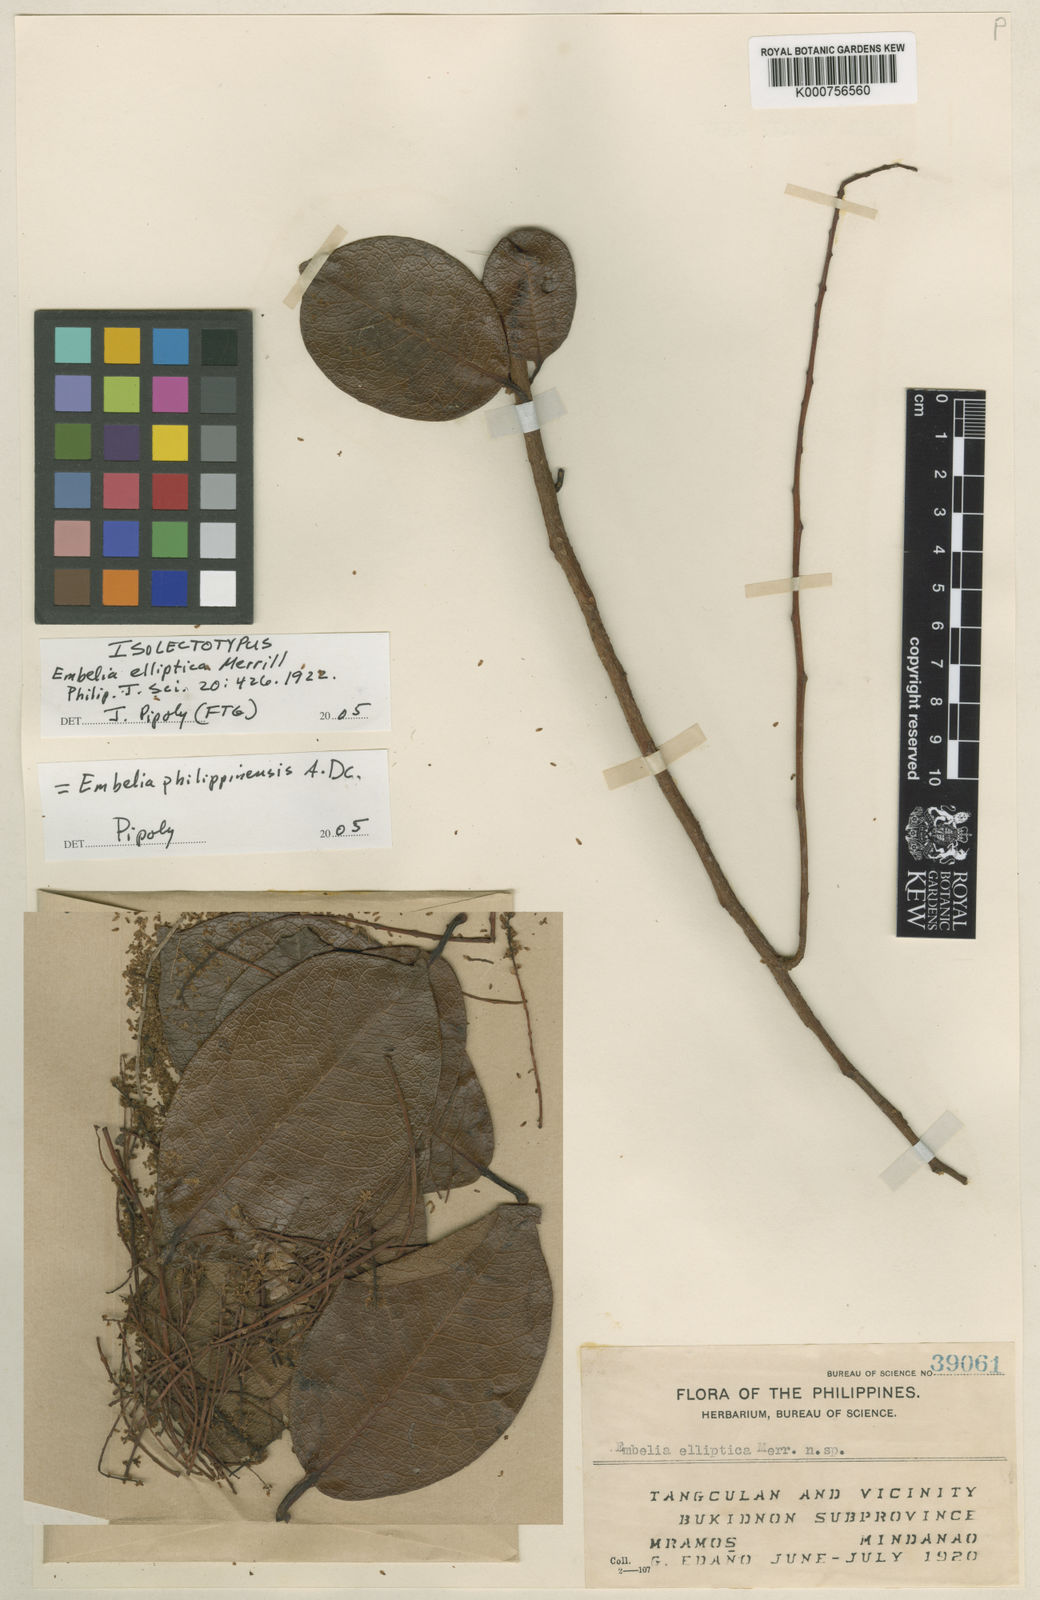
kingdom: Plantae
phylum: Tracheophyta
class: Magnoliopsida
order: Ericales
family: Primulaceae
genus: Embelia
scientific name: Embelia philippinensis
